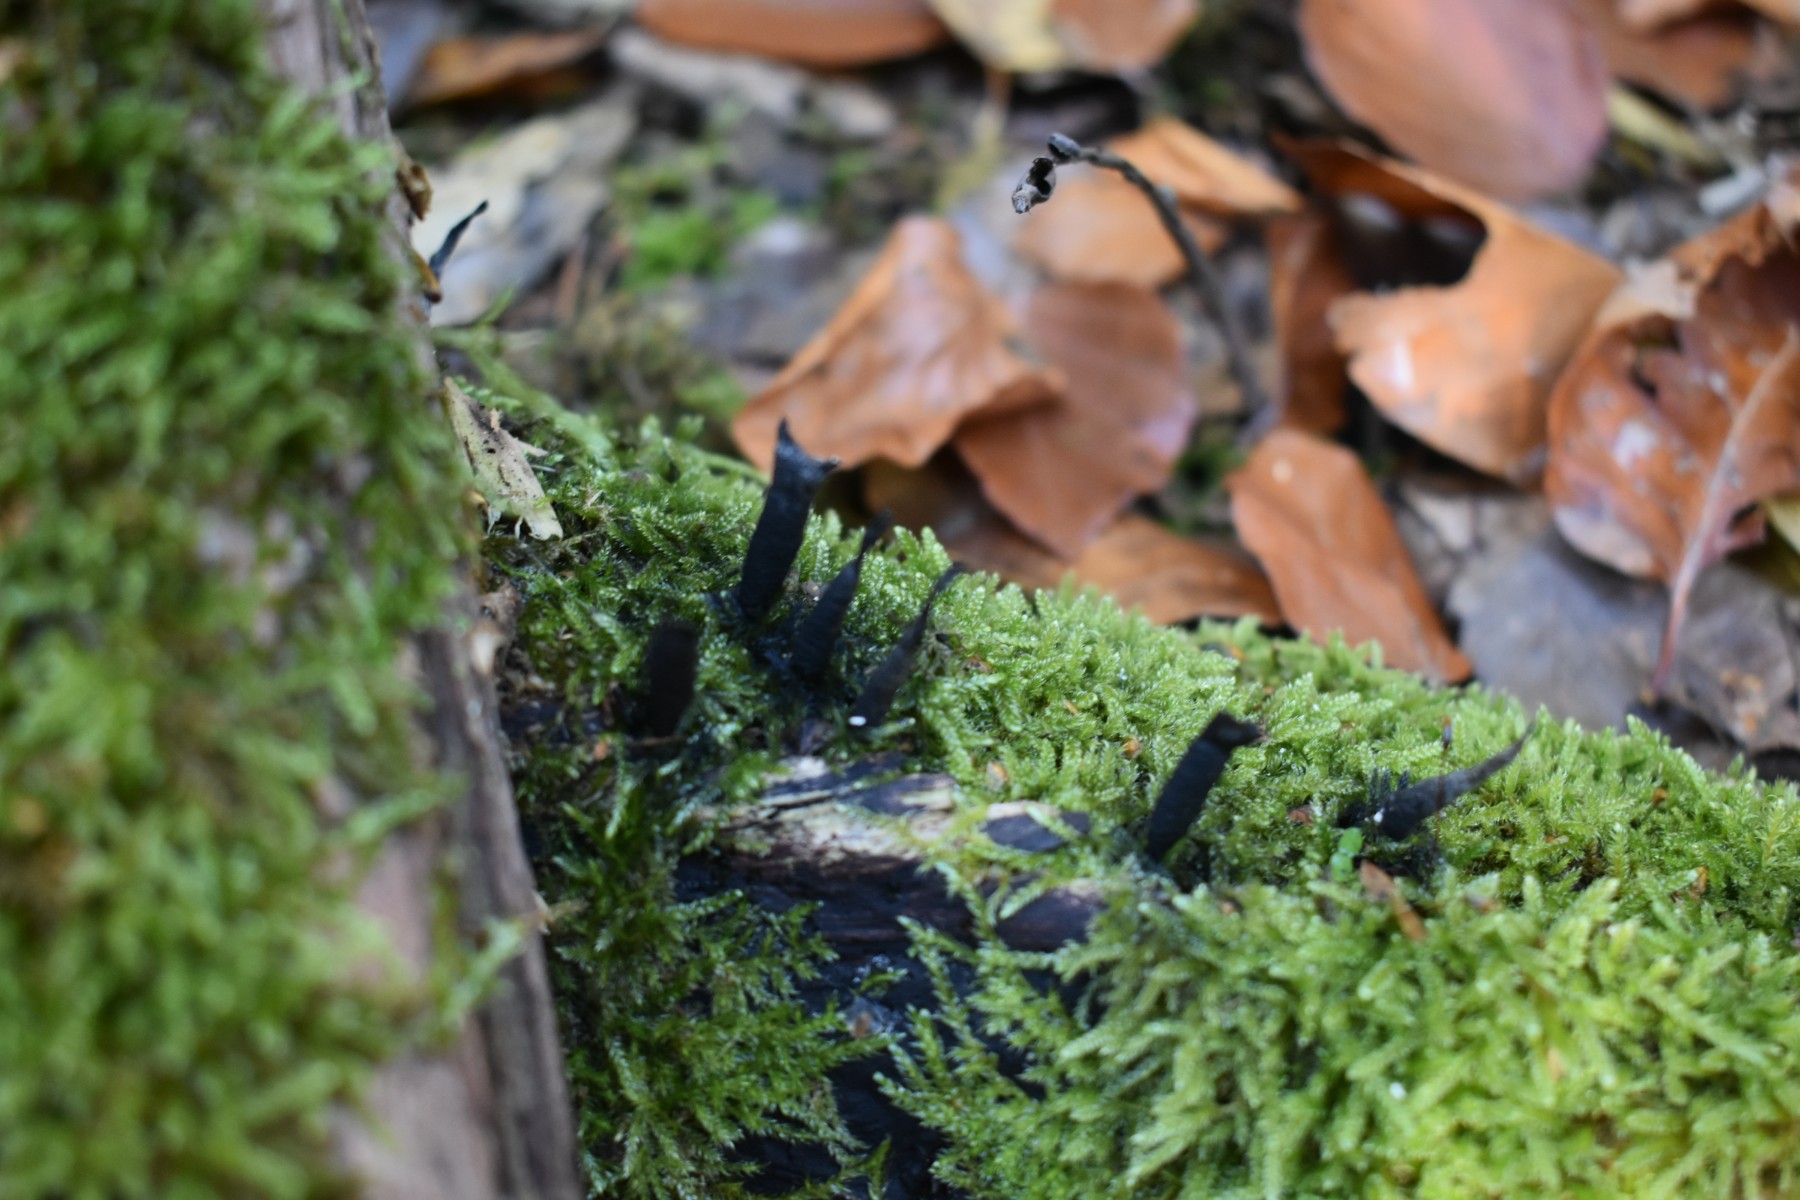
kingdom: Fungi
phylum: Ascomycota
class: Sordariomycetes
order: Xylariales
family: Xylariaceae
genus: Xylaria
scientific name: Xylaria hypoxylon
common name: grenet stødsvamp
